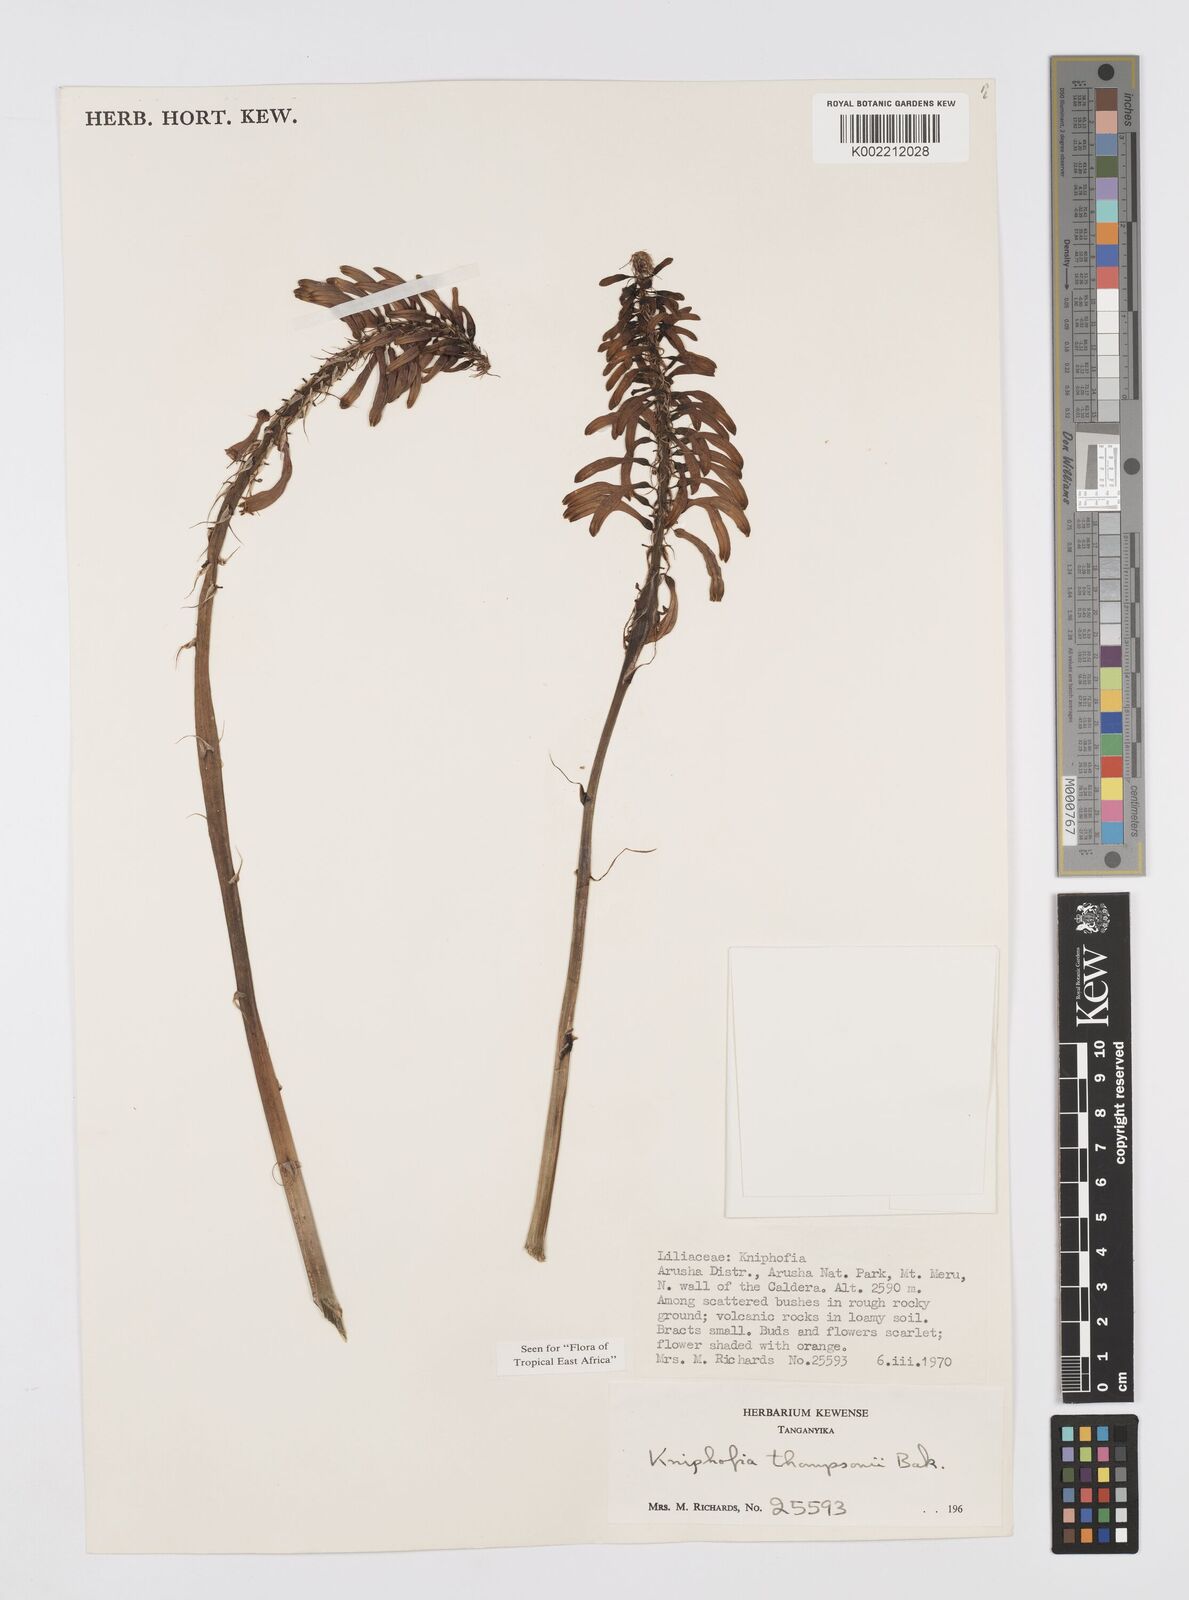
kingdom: Plantae
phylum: Tracheophyta
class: Liliopsida
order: Asparagales
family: Asphodelaceae
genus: Kniphofia
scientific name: Kniphofia thomsonii
